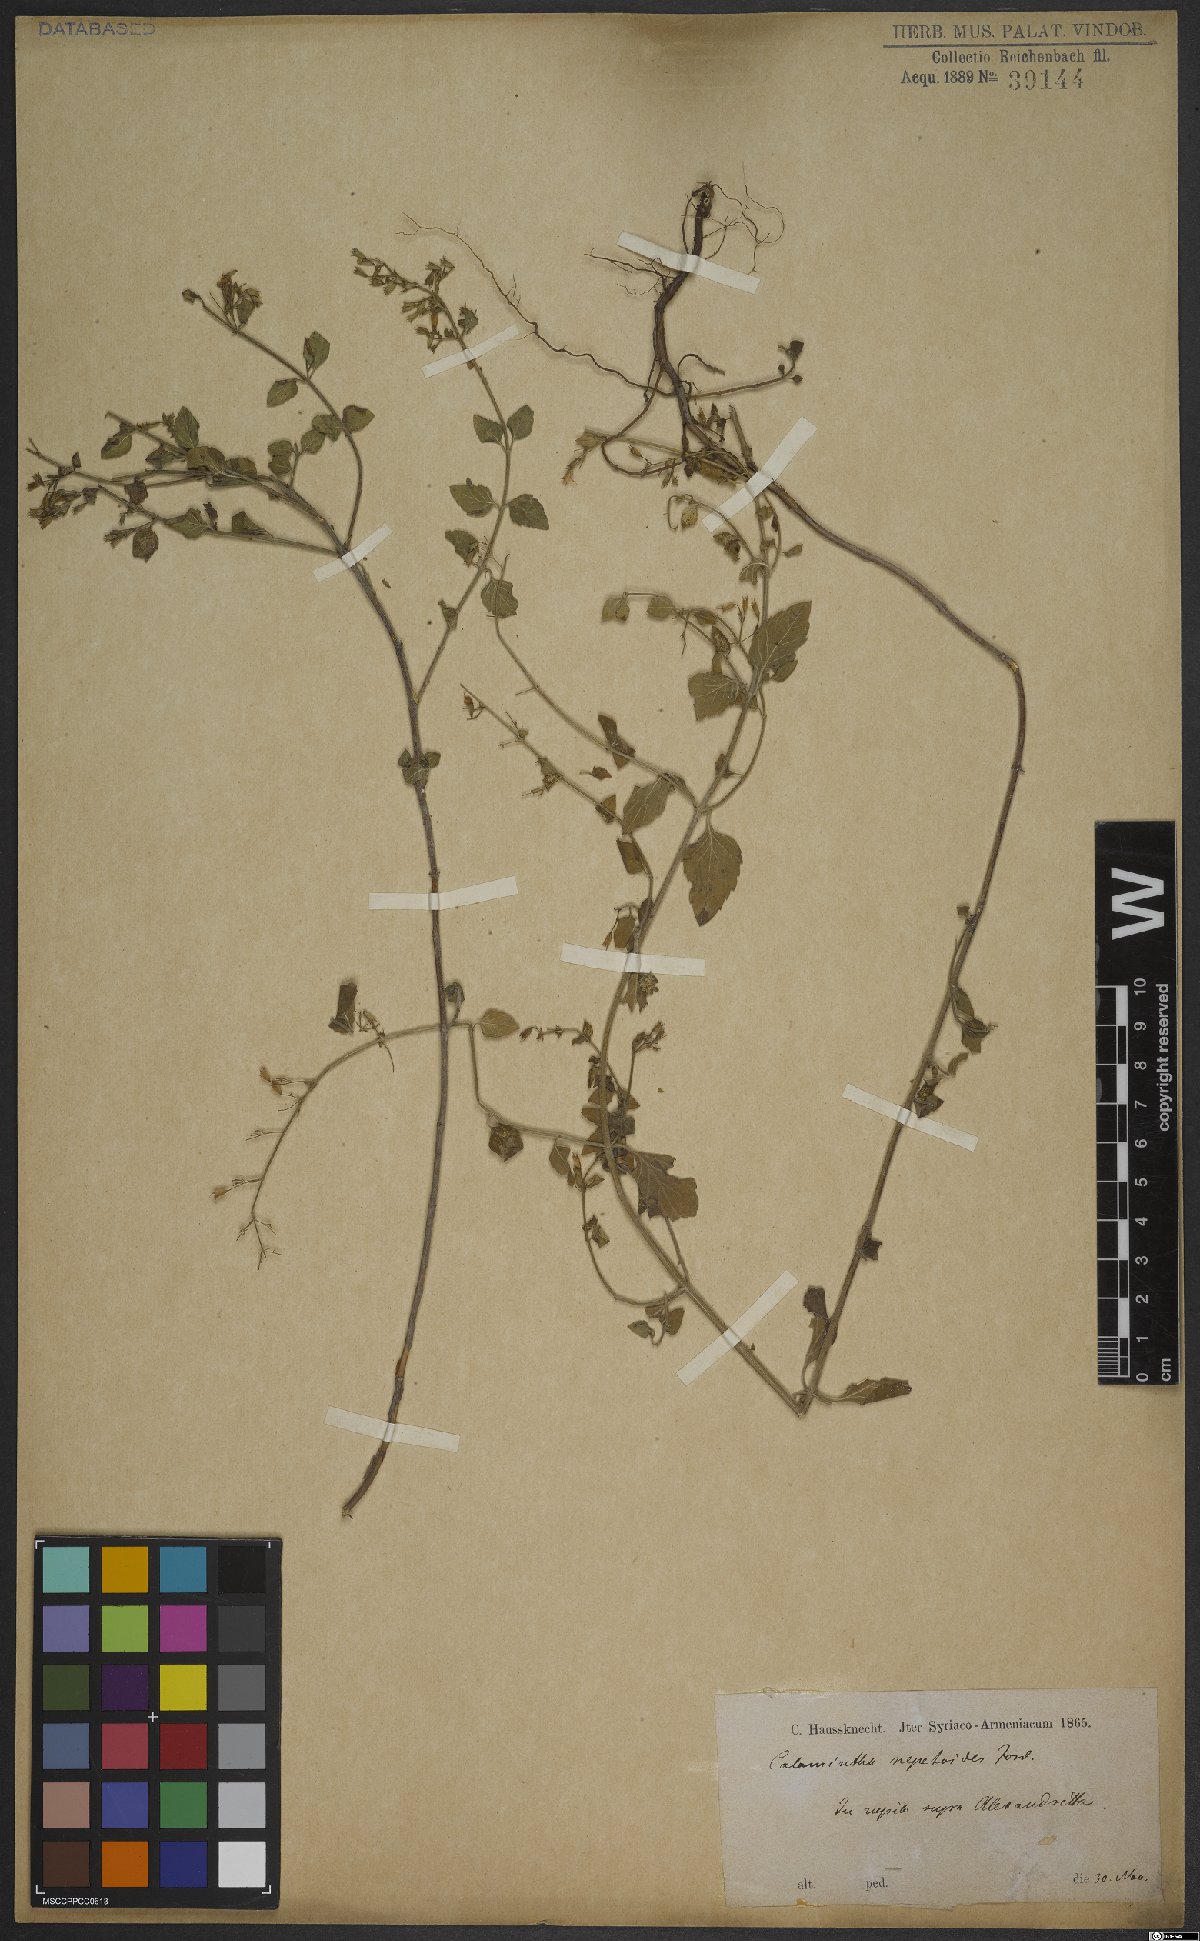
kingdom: Plantae
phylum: Tracheophyta
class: Magnoliopsida
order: Lamiales
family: Lamiaceae
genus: Clinopodium
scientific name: Clinopodium nepeta
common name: Lesser calamint
